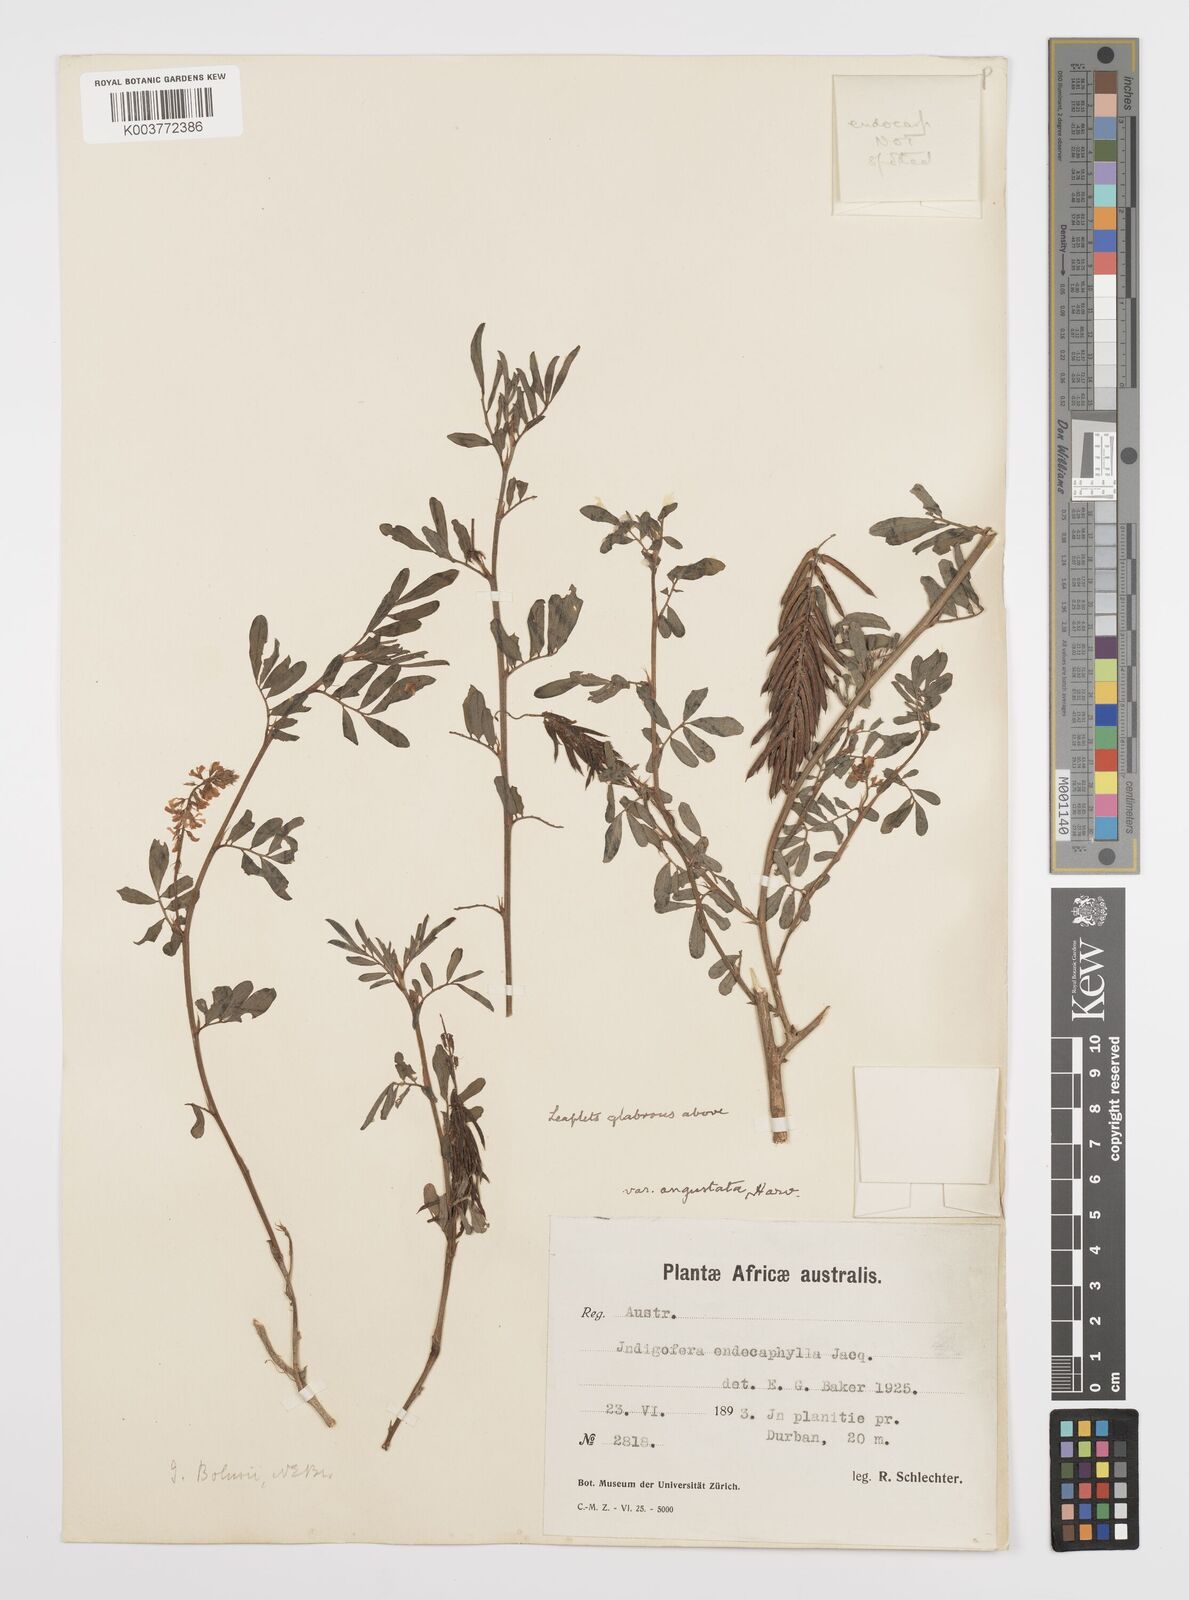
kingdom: Plantae
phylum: Tracheophyta
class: Magnoliopsida
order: Fabales
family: Fabaceae
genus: Indigofera
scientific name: Indigofera hendecaphylla
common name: Trailing indigo
